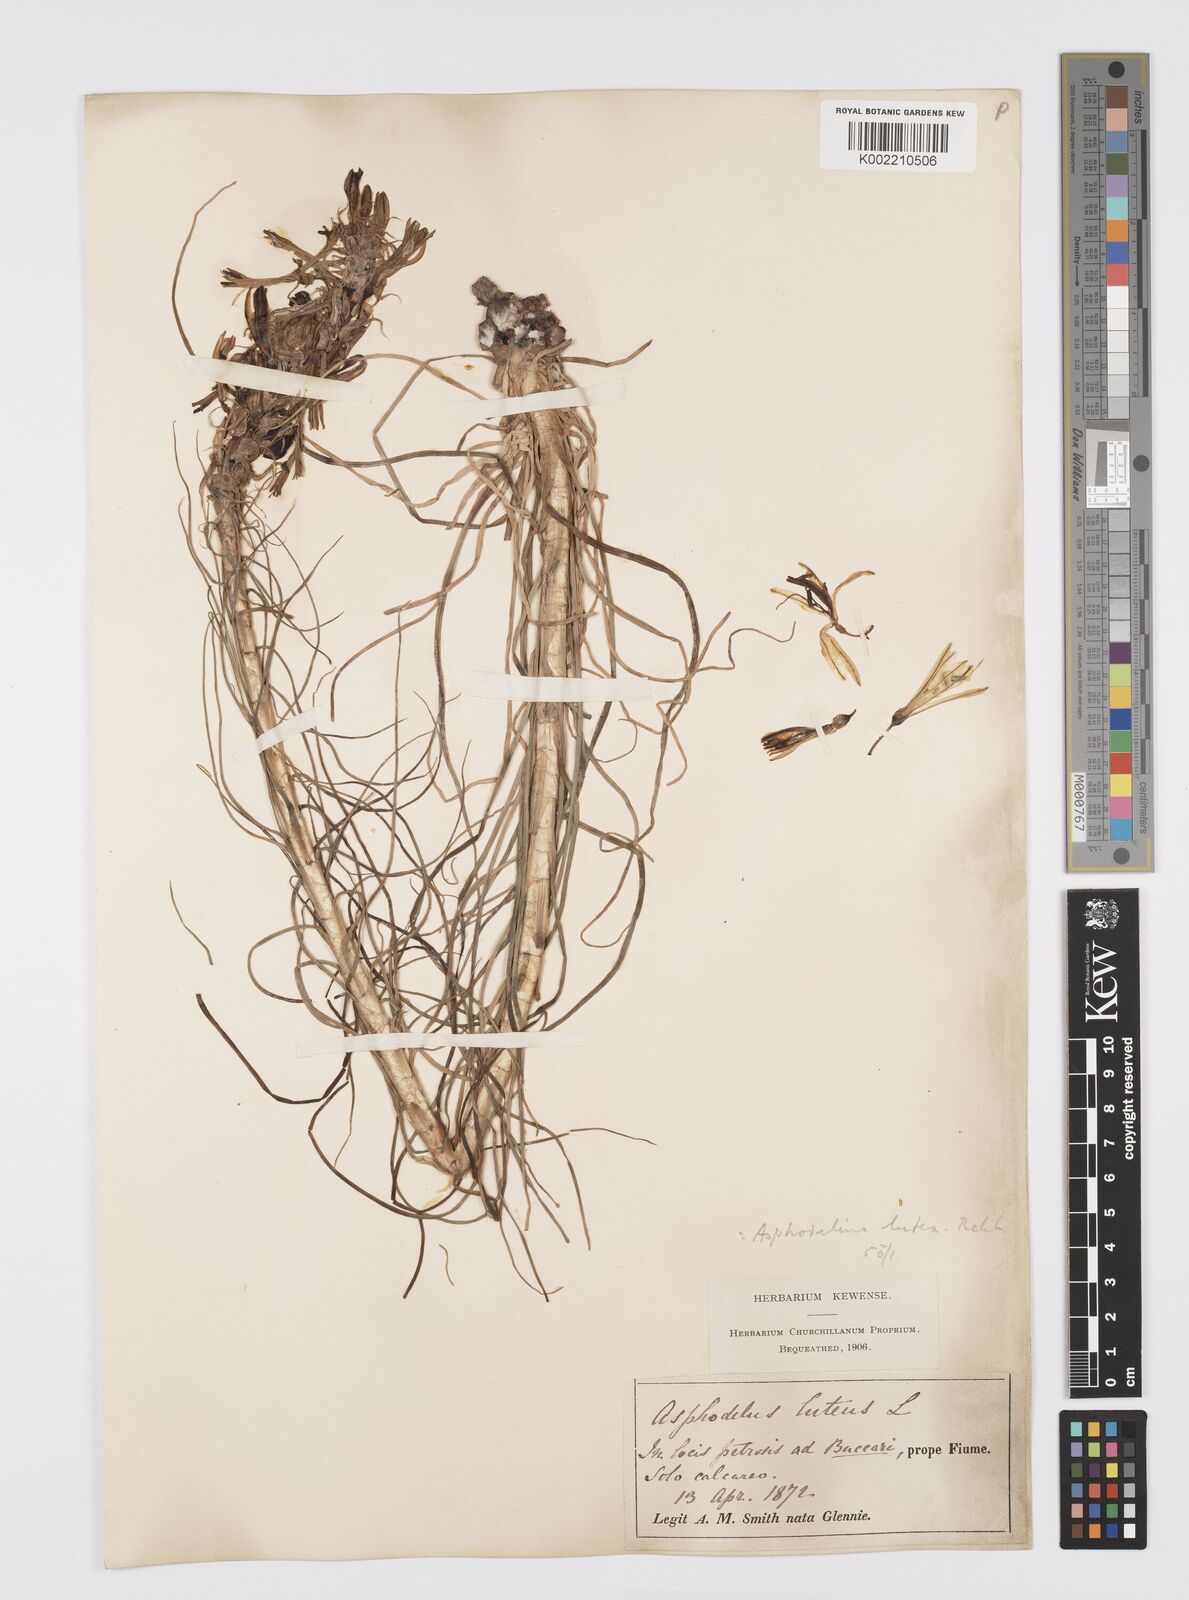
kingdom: Plantae
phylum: Tracheophyta
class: Liliopsida
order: Asparagales
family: Asphodelaceae
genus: Asphodeline
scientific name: Asphodeline lutea
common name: Yellow asphodel
